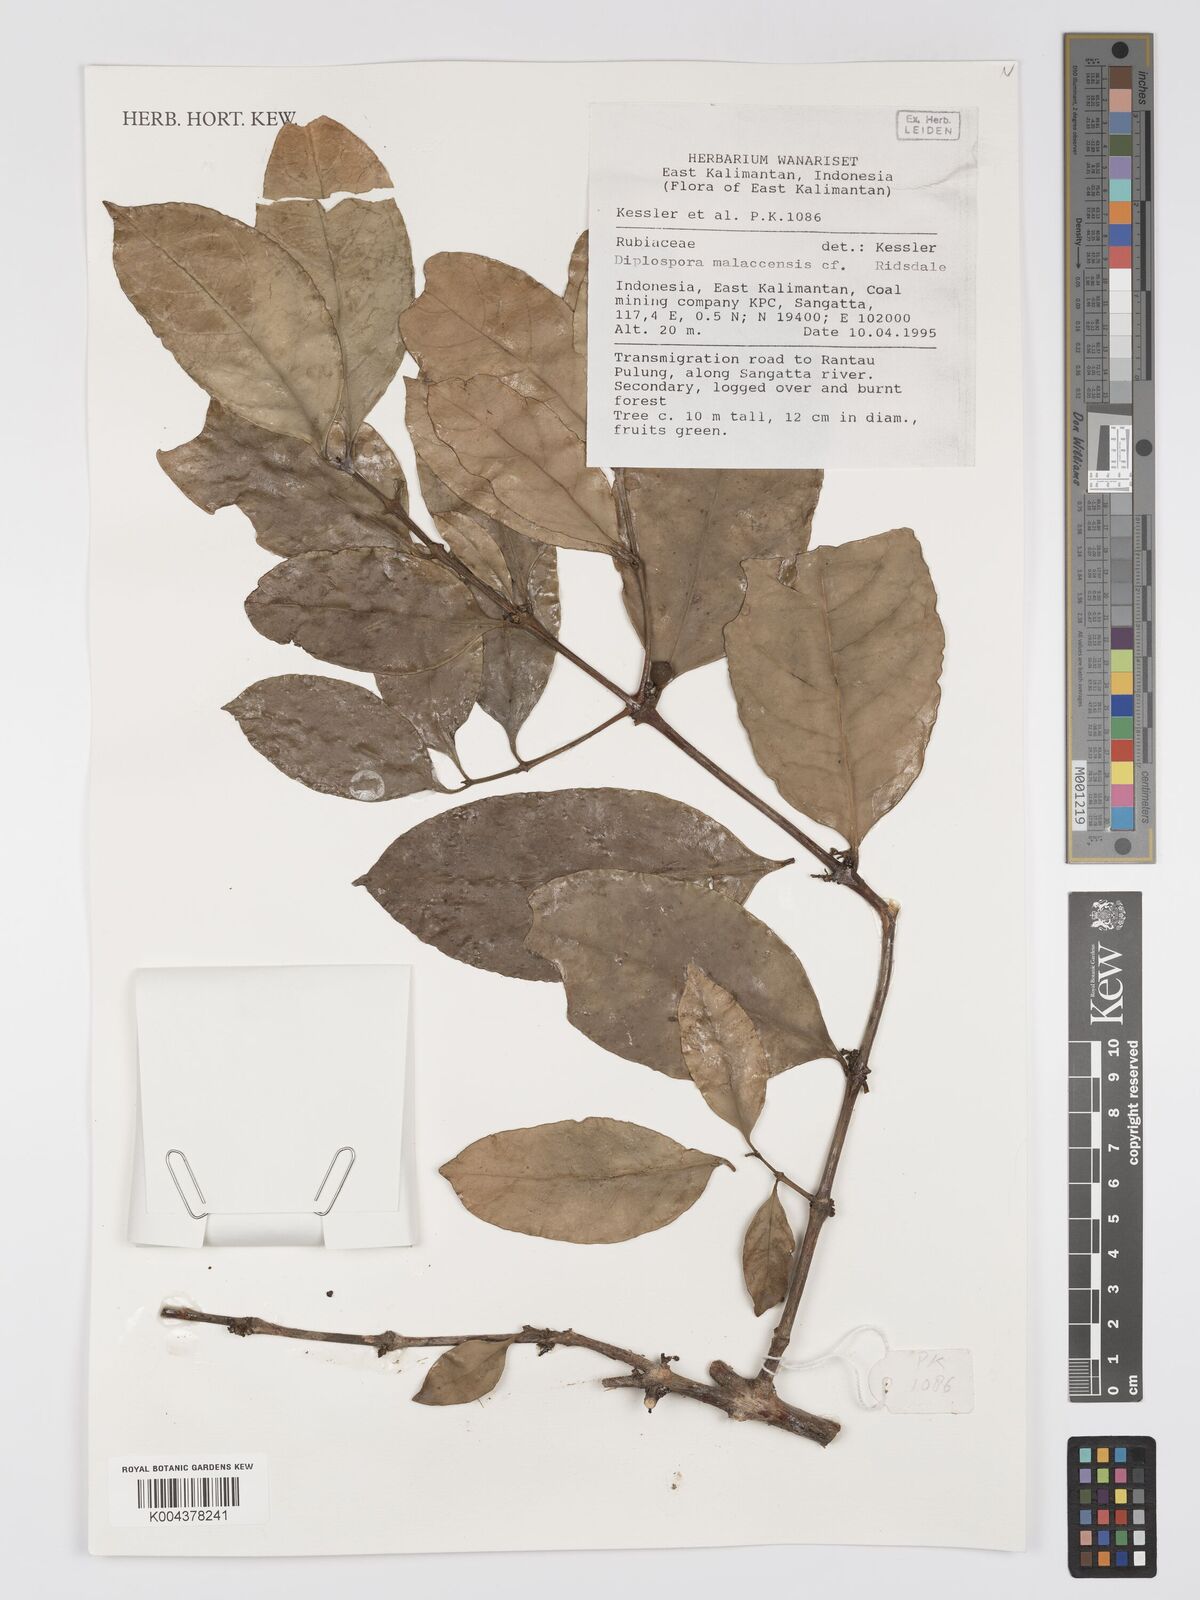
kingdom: Plantae
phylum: Tracheophyta
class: Magnoliopsida
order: Gentianales
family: Rubiaceae
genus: Discospermum
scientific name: Discospermum malaccense
